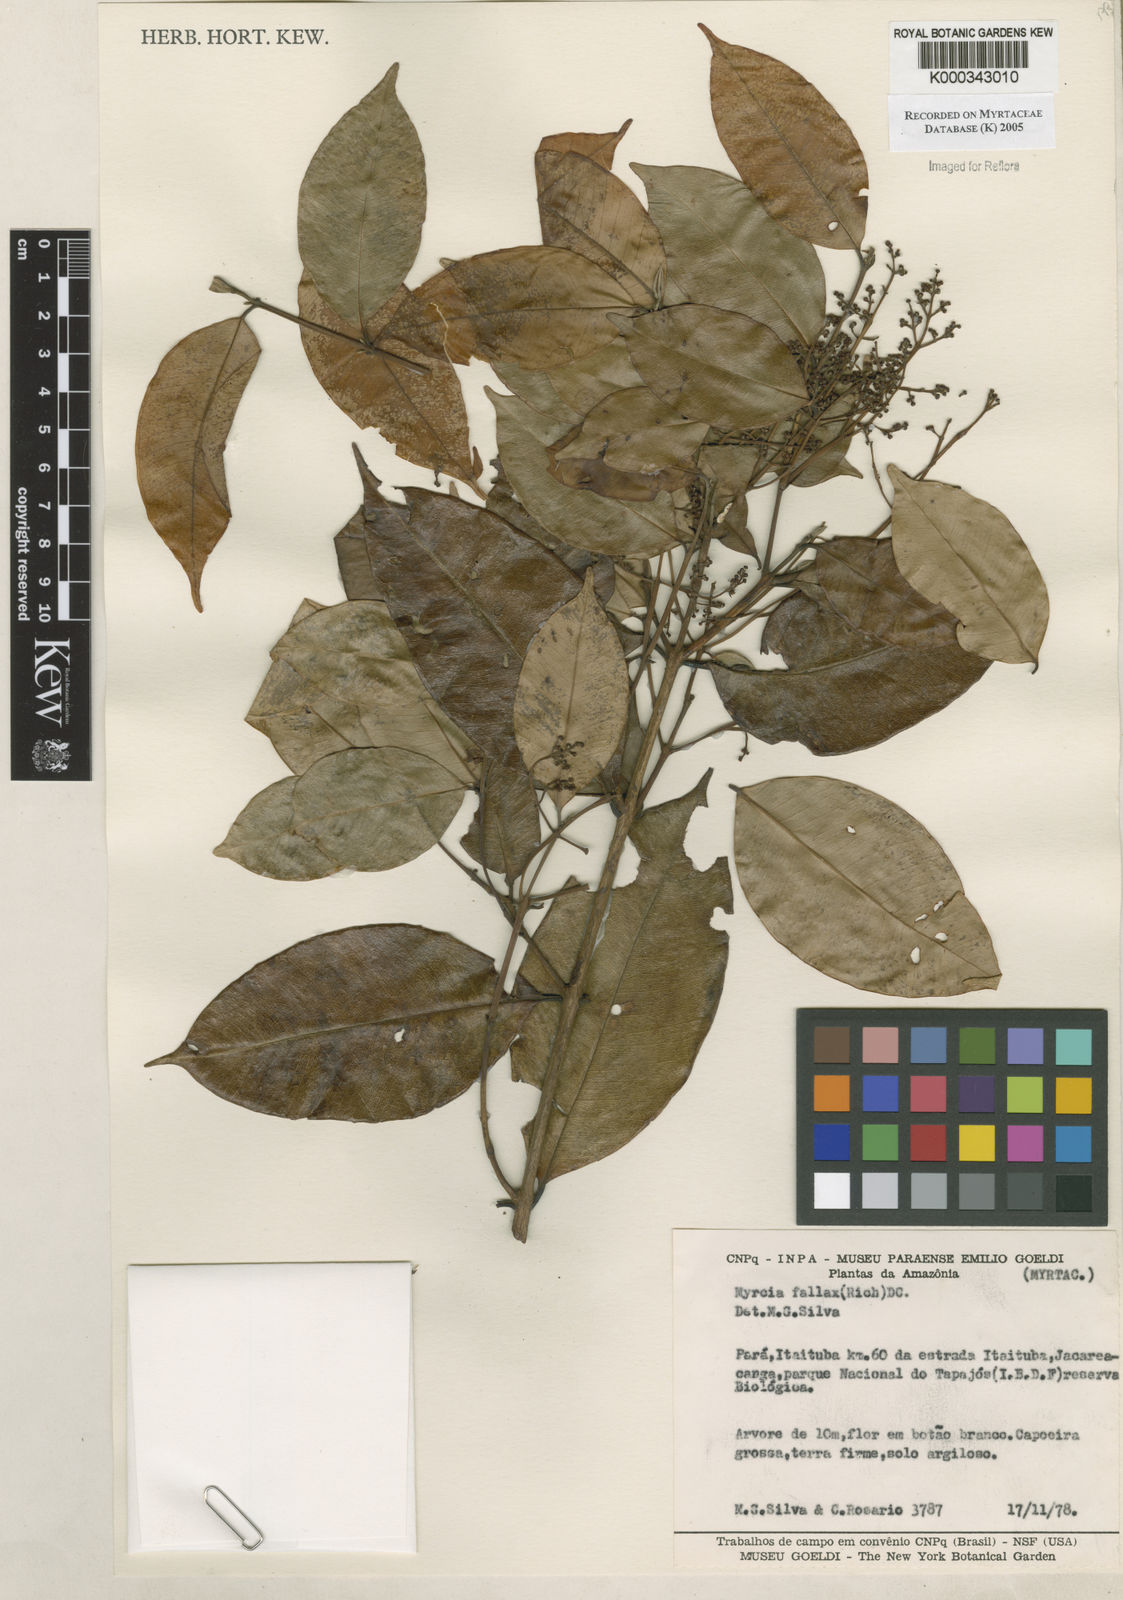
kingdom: Plantae
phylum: Tracheophyta
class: Magnoliopsida
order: Myrtales
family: Myrtaceae
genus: Myrcia
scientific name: Myrcia splendens
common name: Surinam cherry
